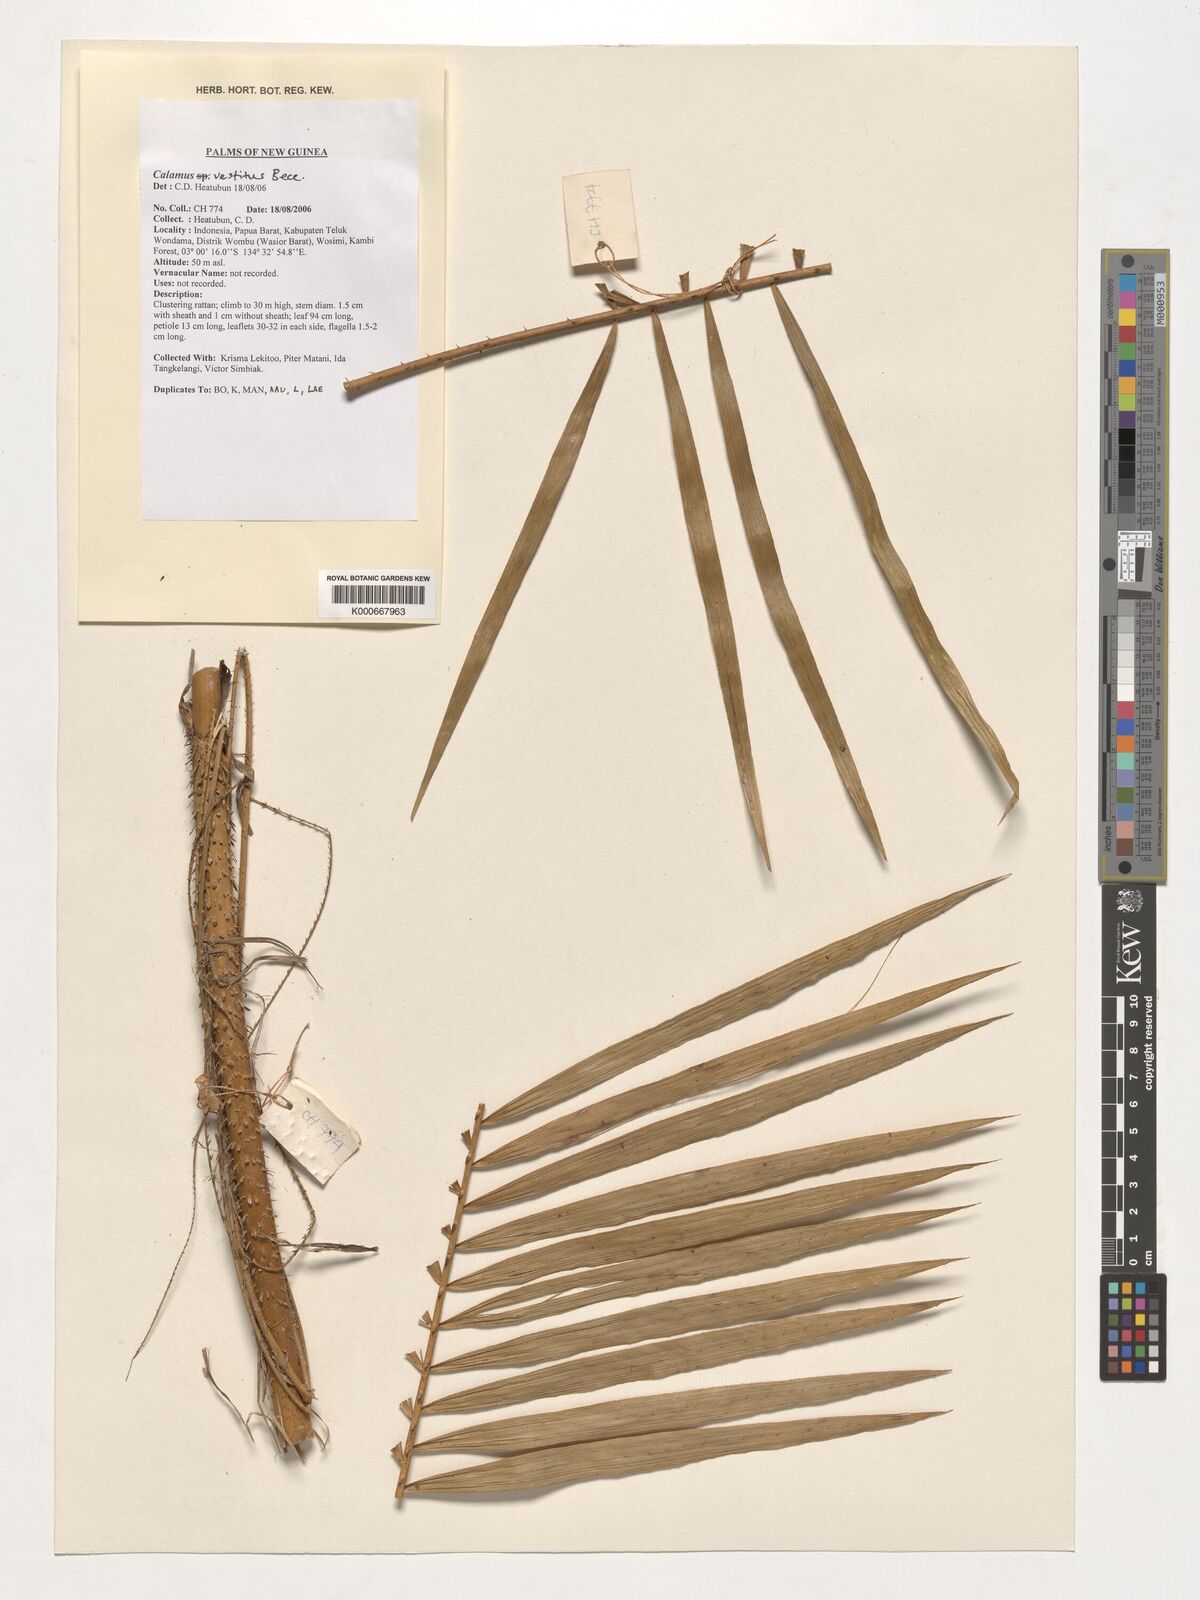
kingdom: Plantae
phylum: Tracheophyta
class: Liliopsida
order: Arecales
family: Arecaceae
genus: Calamus
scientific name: Calamus vestitus
